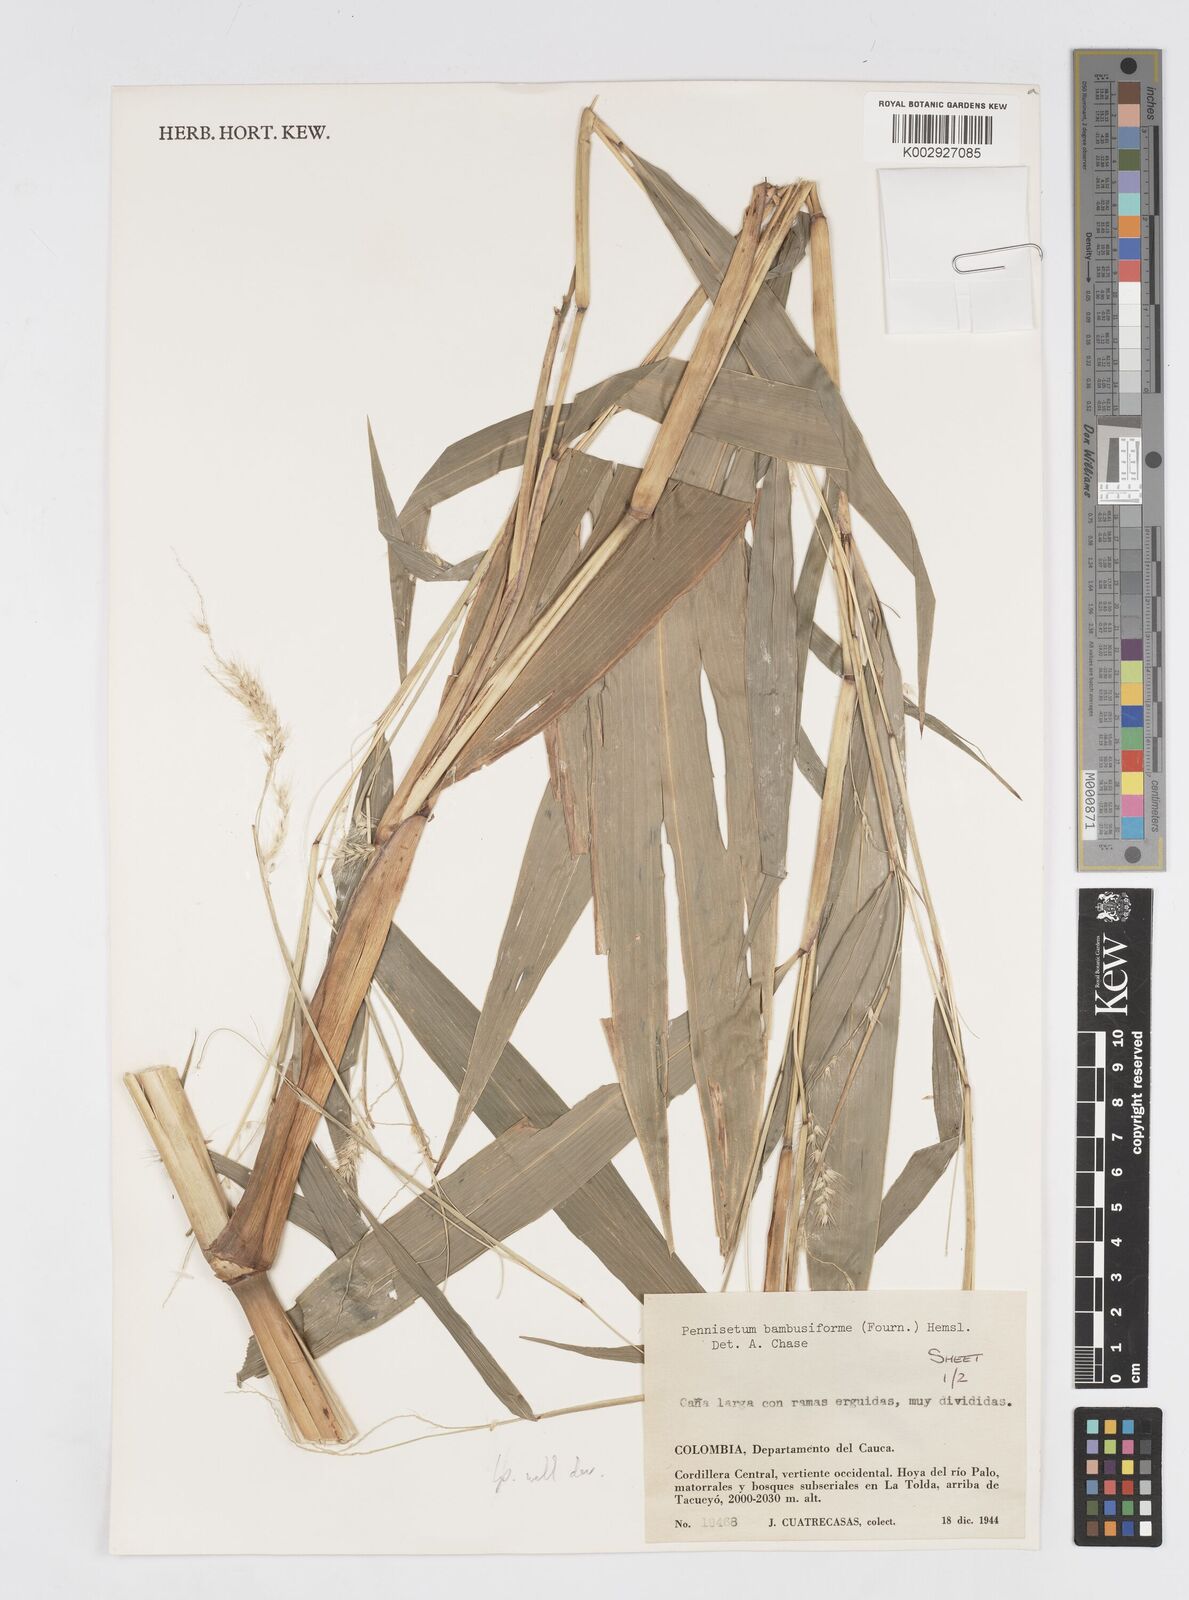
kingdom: Plantae
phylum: Tracheophyta
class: Liliopsida
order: Poales
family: Poaceae
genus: Cenchrus
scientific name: Cenchrus tristachyus
